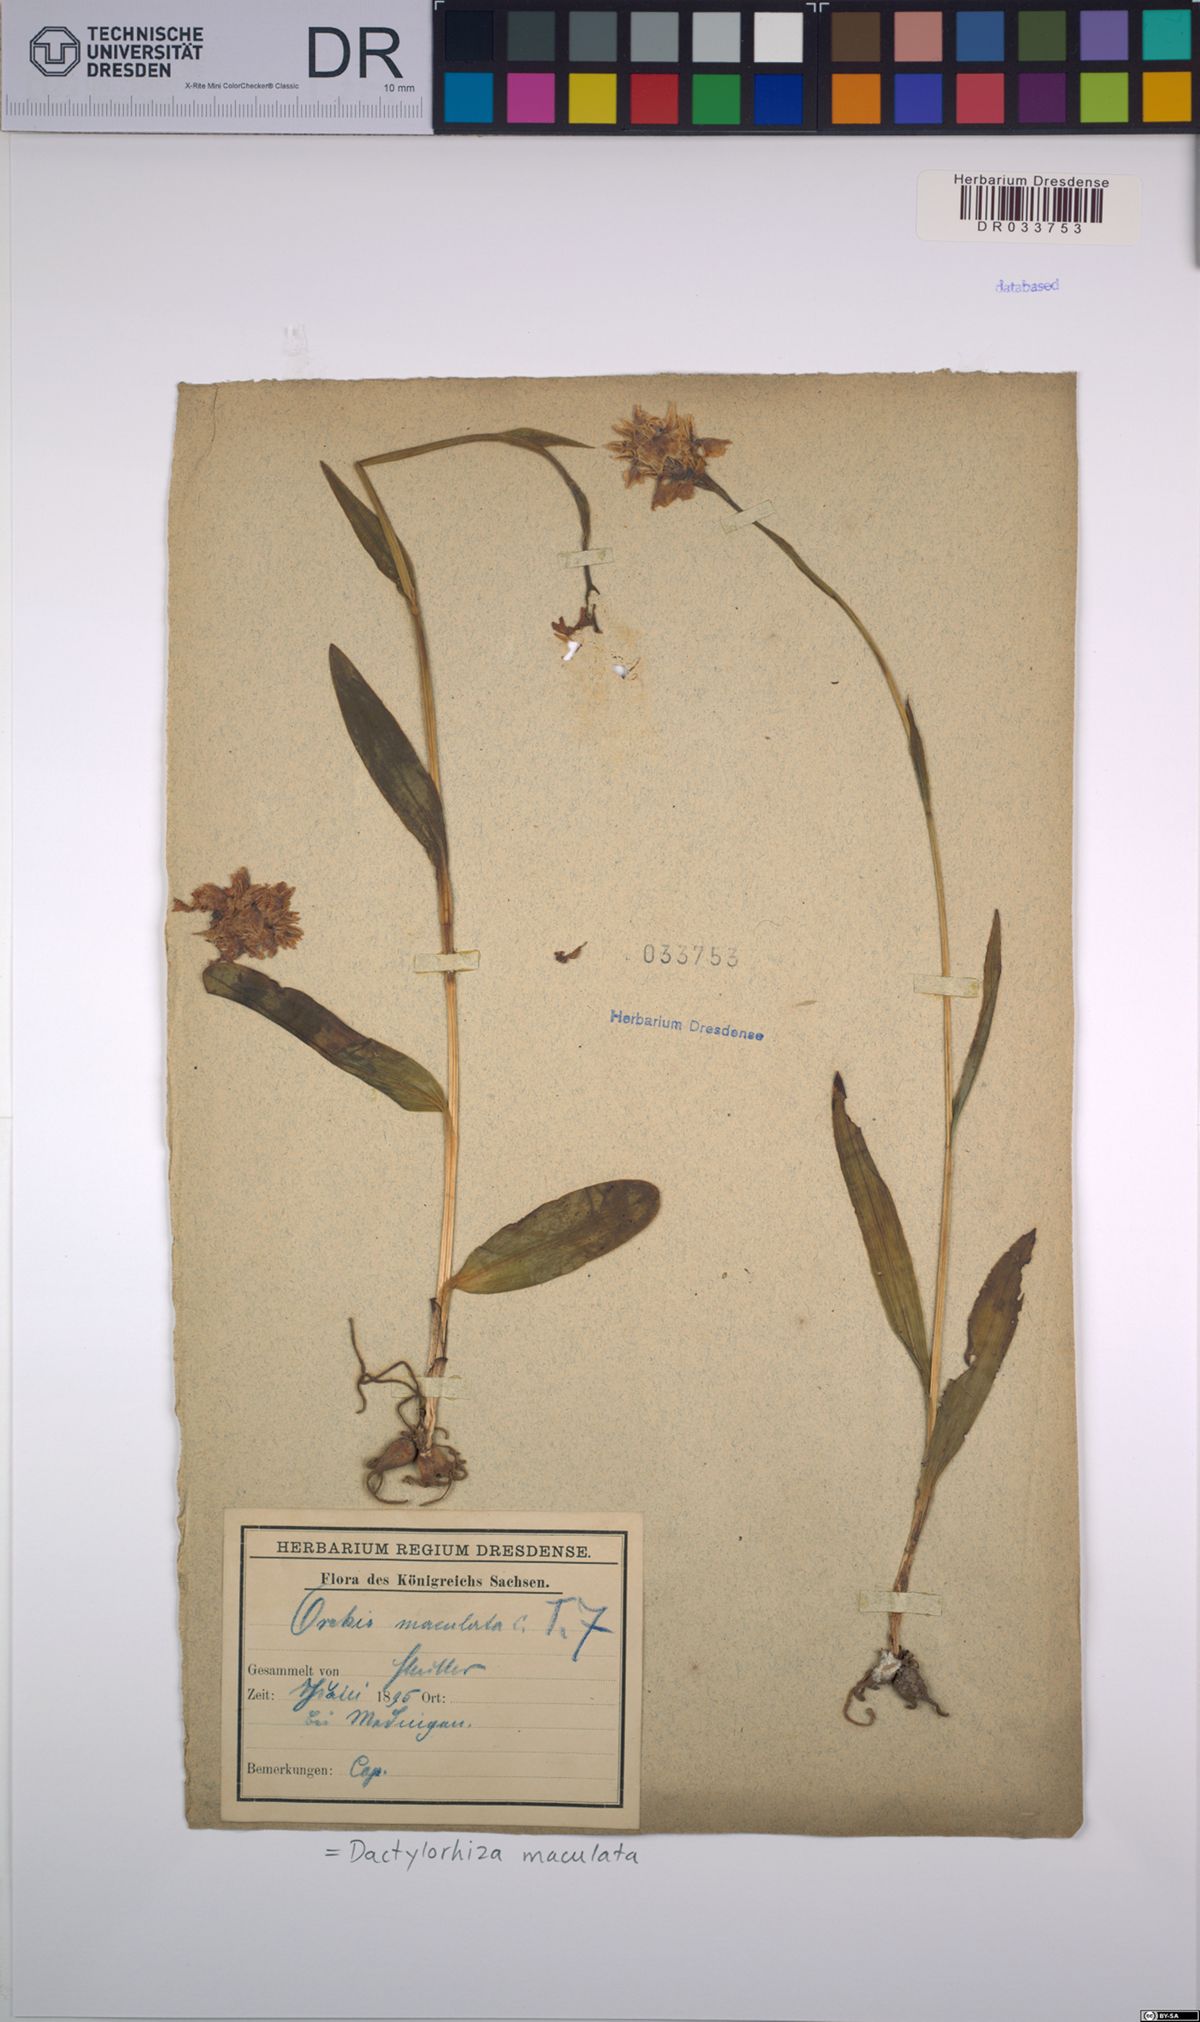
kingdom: Plantae
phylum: Tracheophyta
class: Liliopsida
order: Asparagales
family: Orchidaceae
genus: Dactylorhiza
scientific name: Dactylorhiza maculata
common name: Heath spotted-orchid
